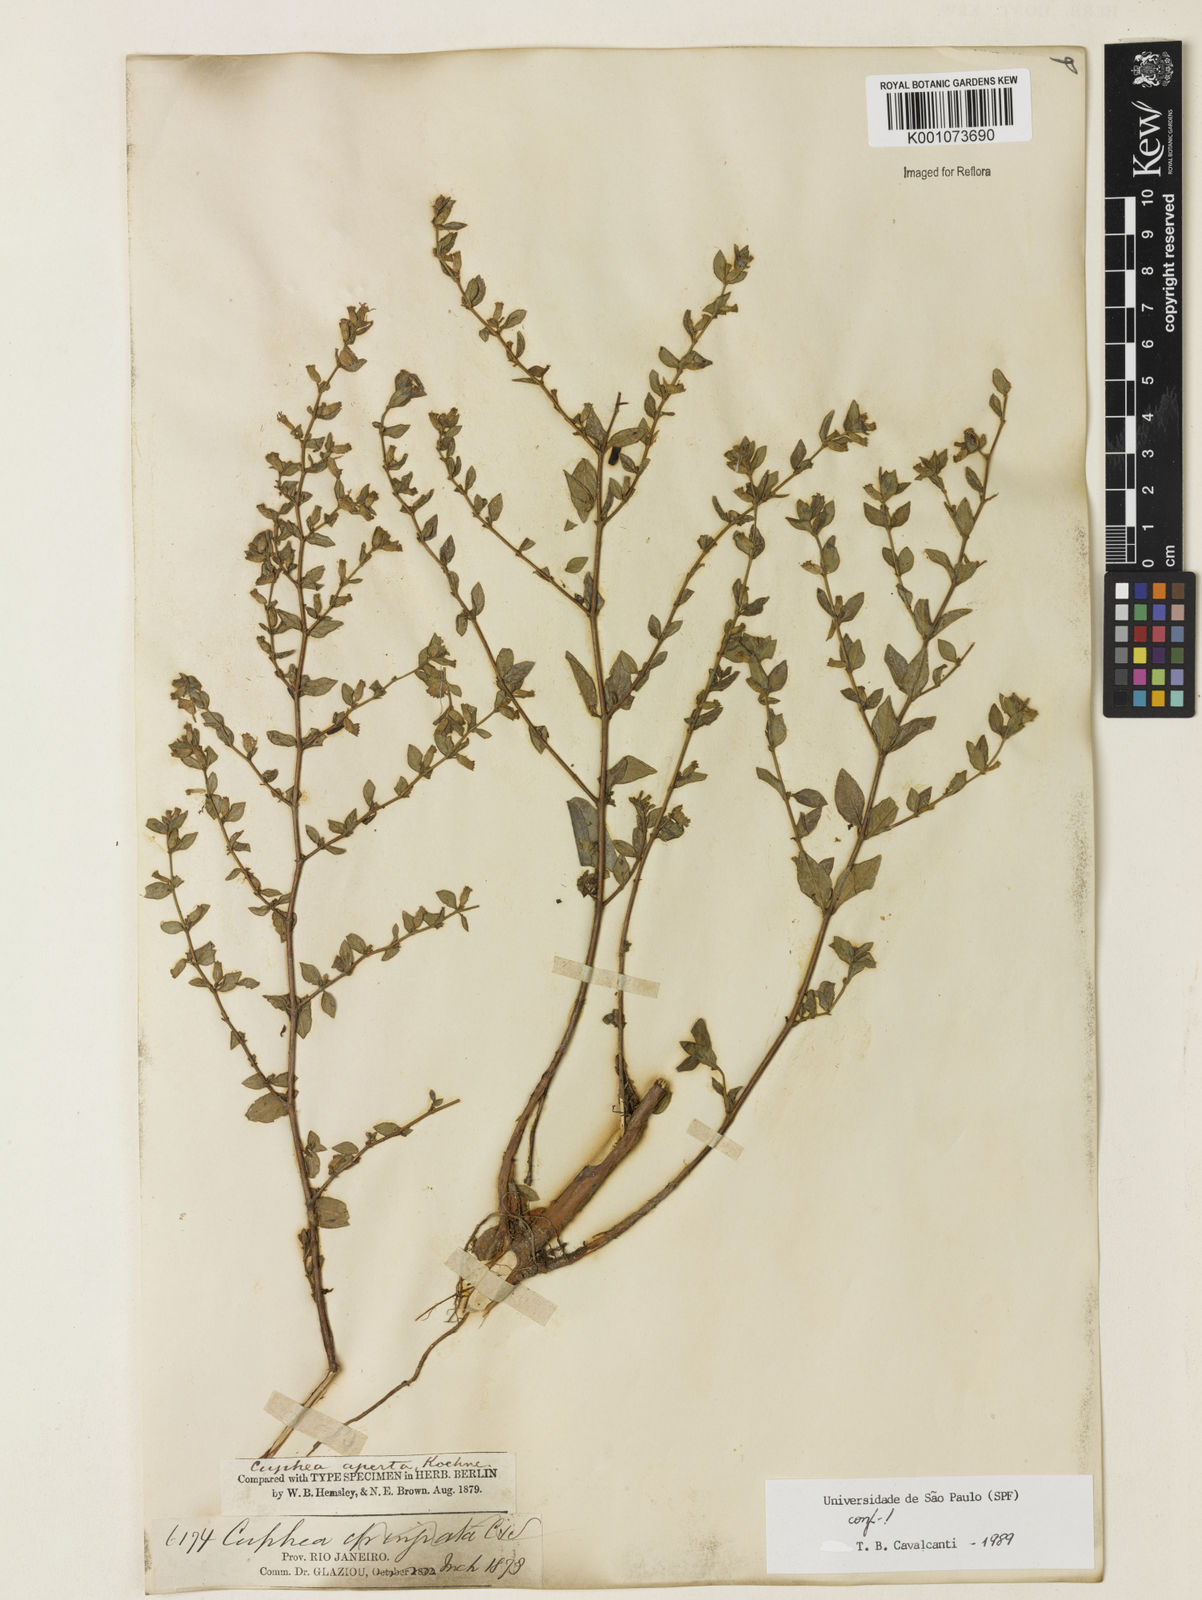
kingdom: Plantae
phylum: Tracheophyta
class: Magnoliopsida
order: Myrtales
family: Lythraceae
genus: Cuphea
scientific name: Cuphea aperta
